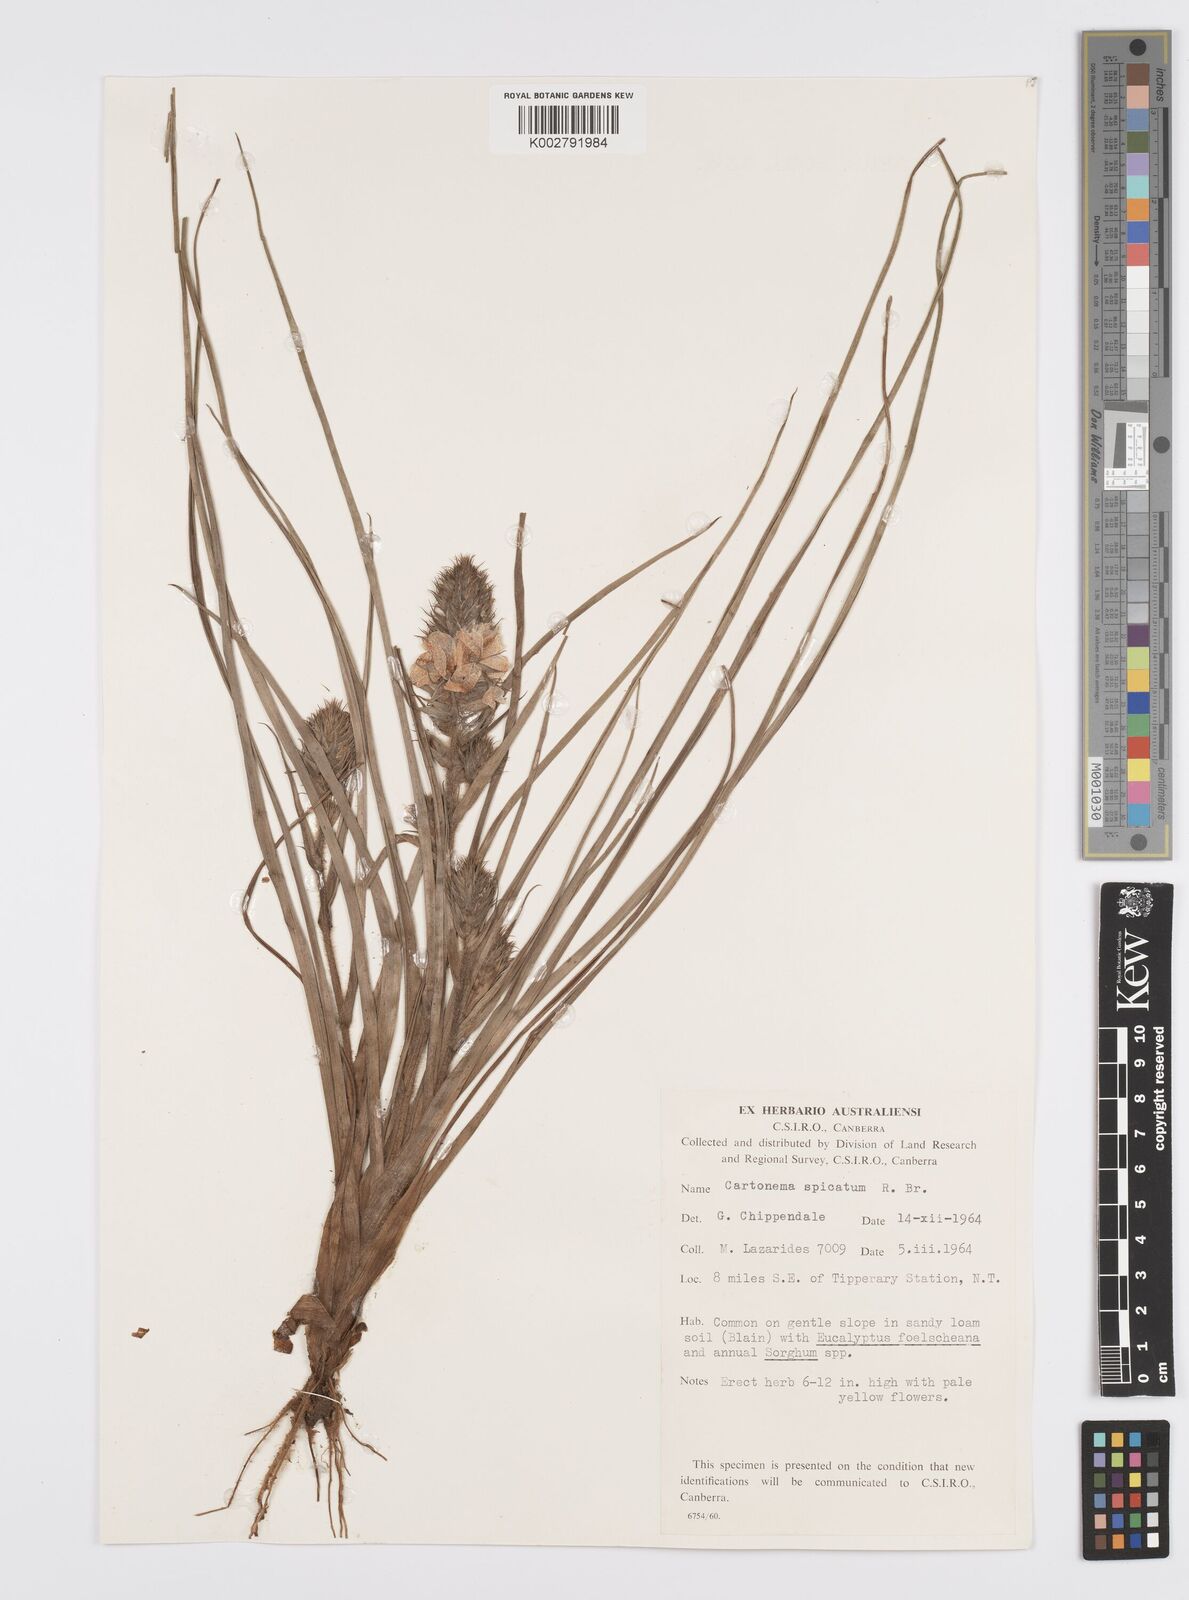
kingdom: Plantae
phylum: Tracheophyta
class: Liliopsida
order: Commelinales
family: Commelinaceae
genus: Cartonema
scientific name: Cartonema spicatum
